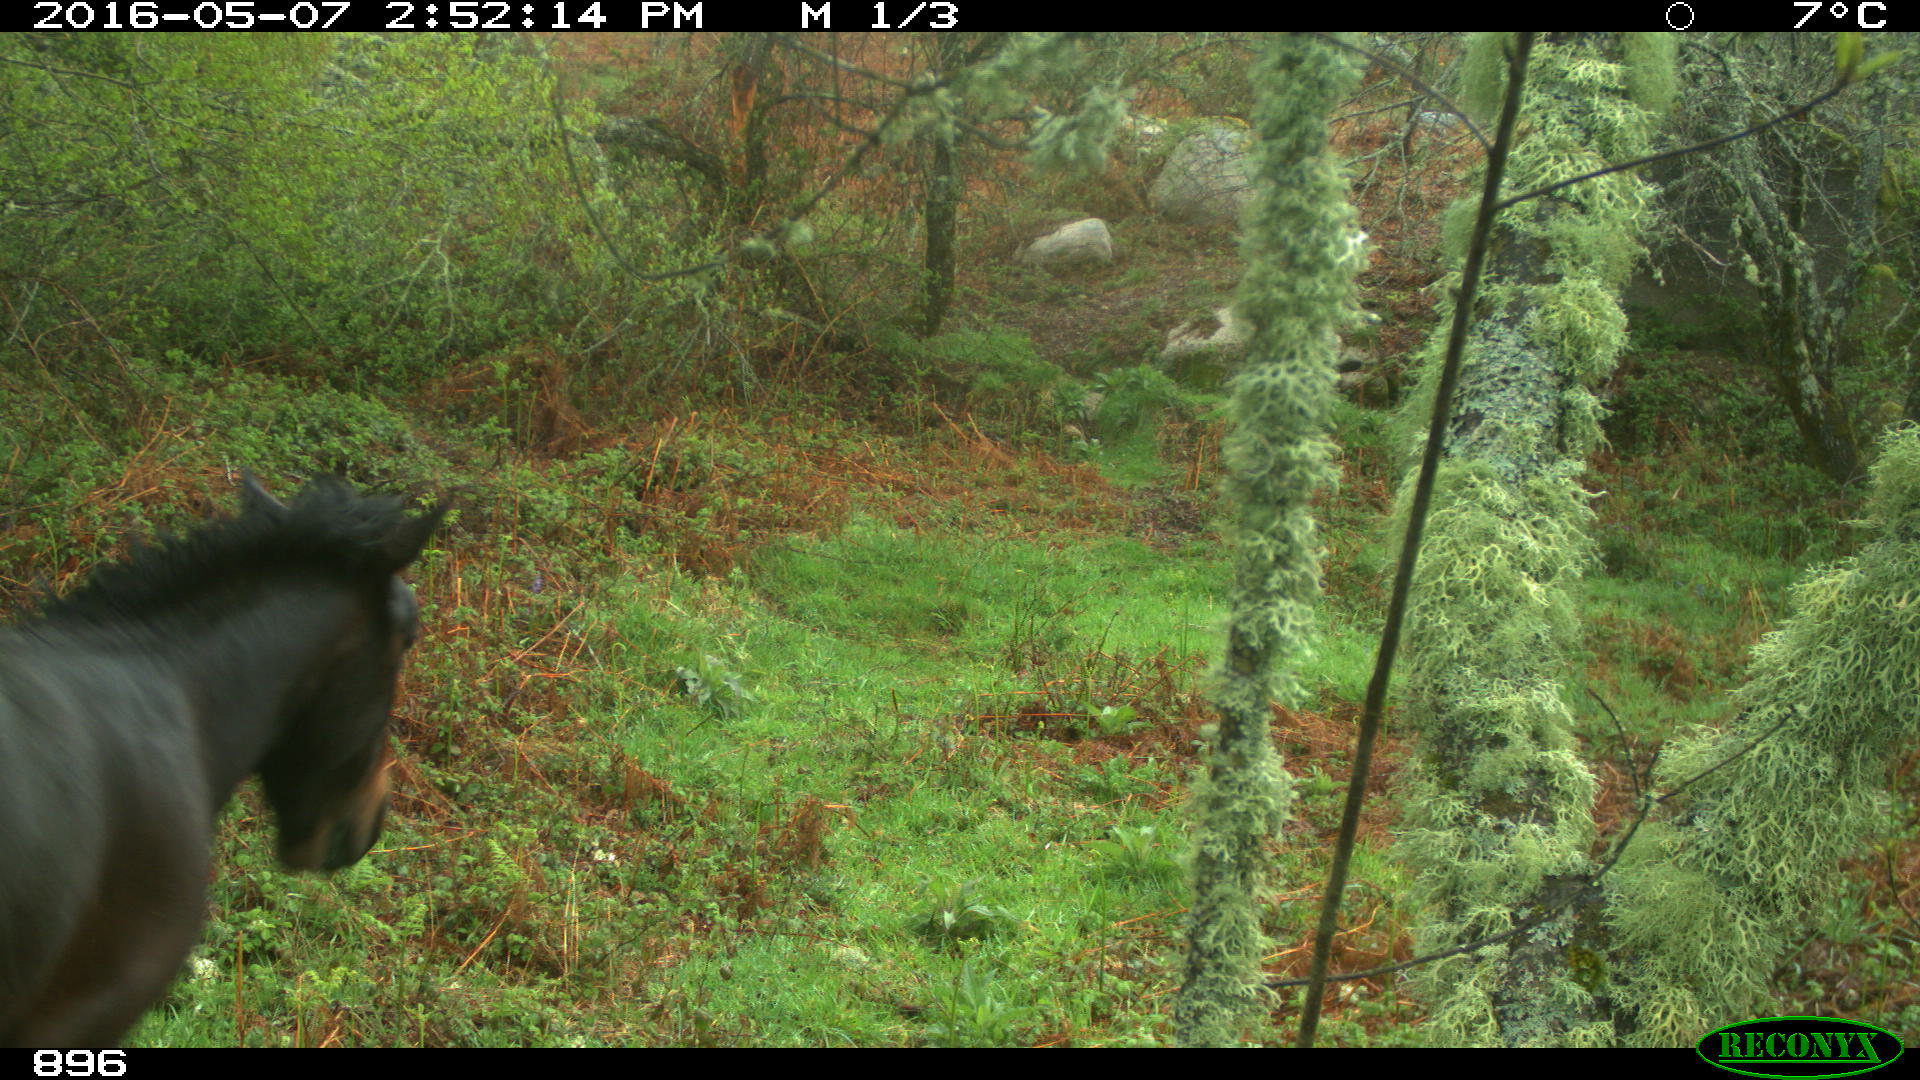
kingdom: Animalia
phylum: Chordata
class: Mammalia
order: Perissodactyla
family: Equidae
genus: Equus
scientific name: Equus caballus
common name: Horse
